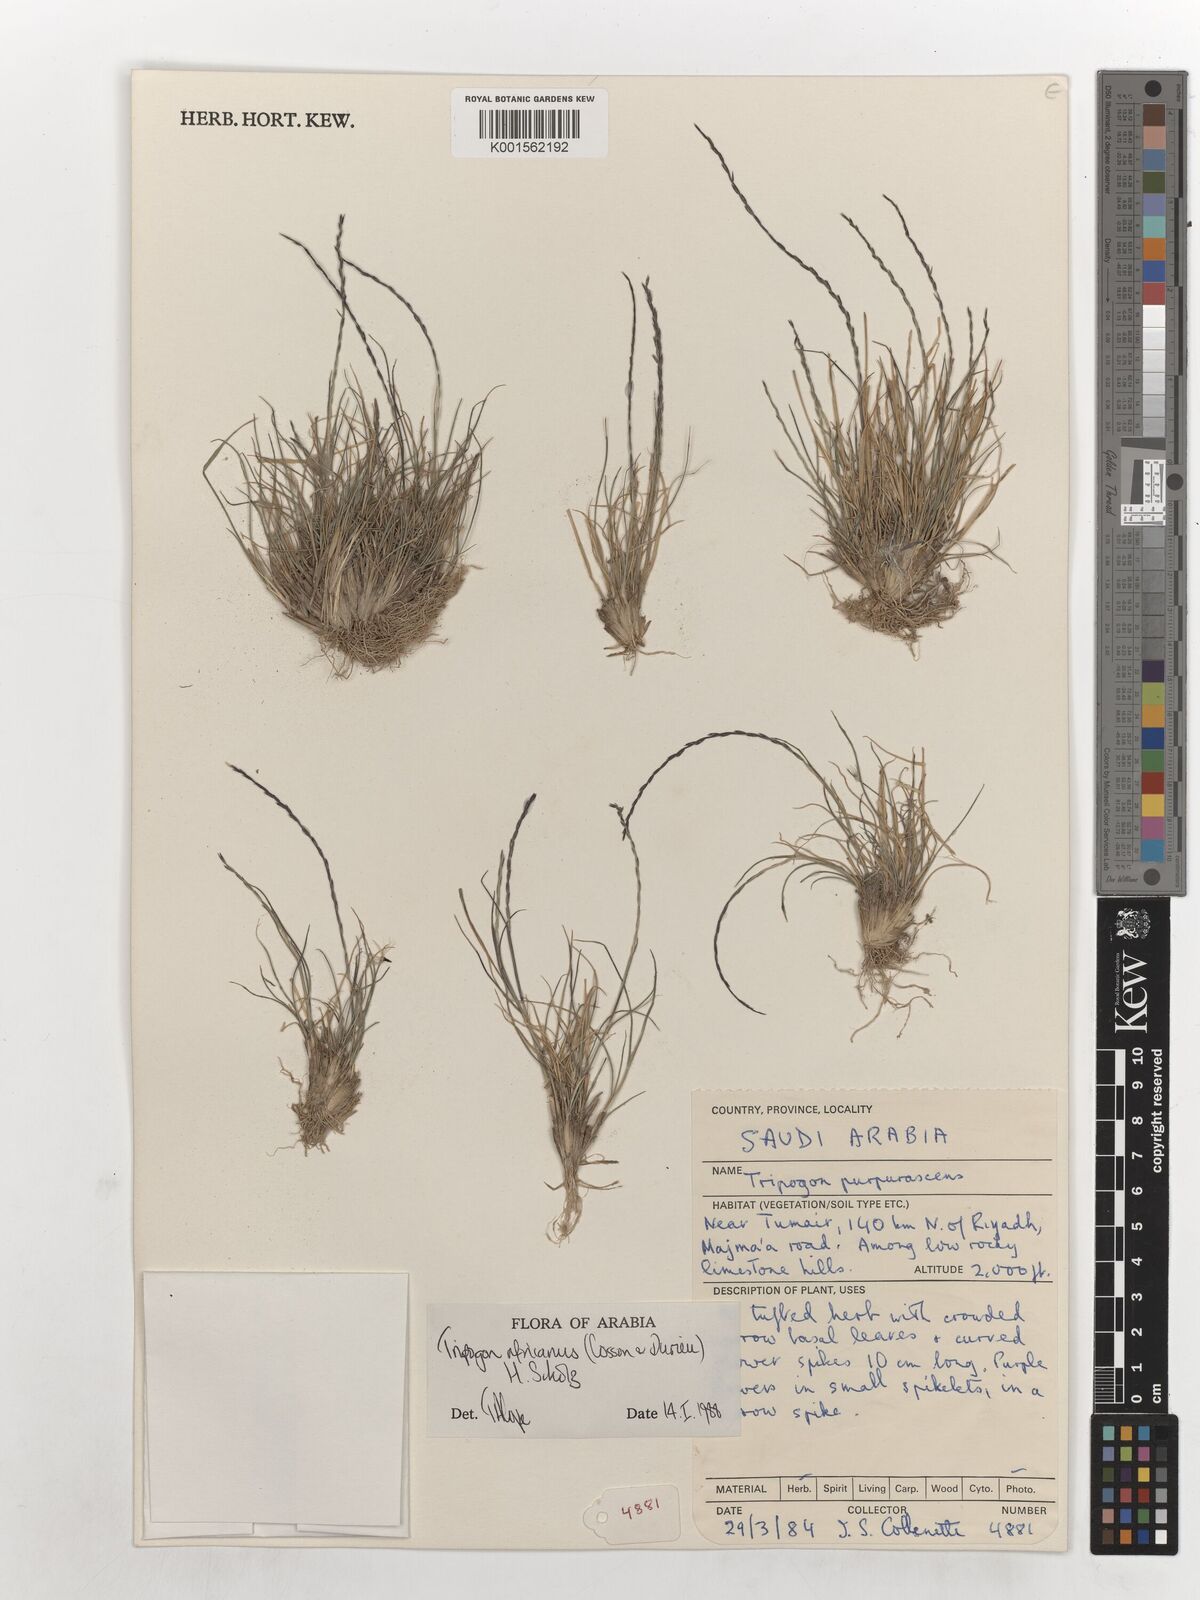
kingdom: Plantae
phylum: Tracheophyta
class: Liliopsida
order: Poales
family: Poaceae
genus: Tripogon
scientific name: Tripogon africanus
